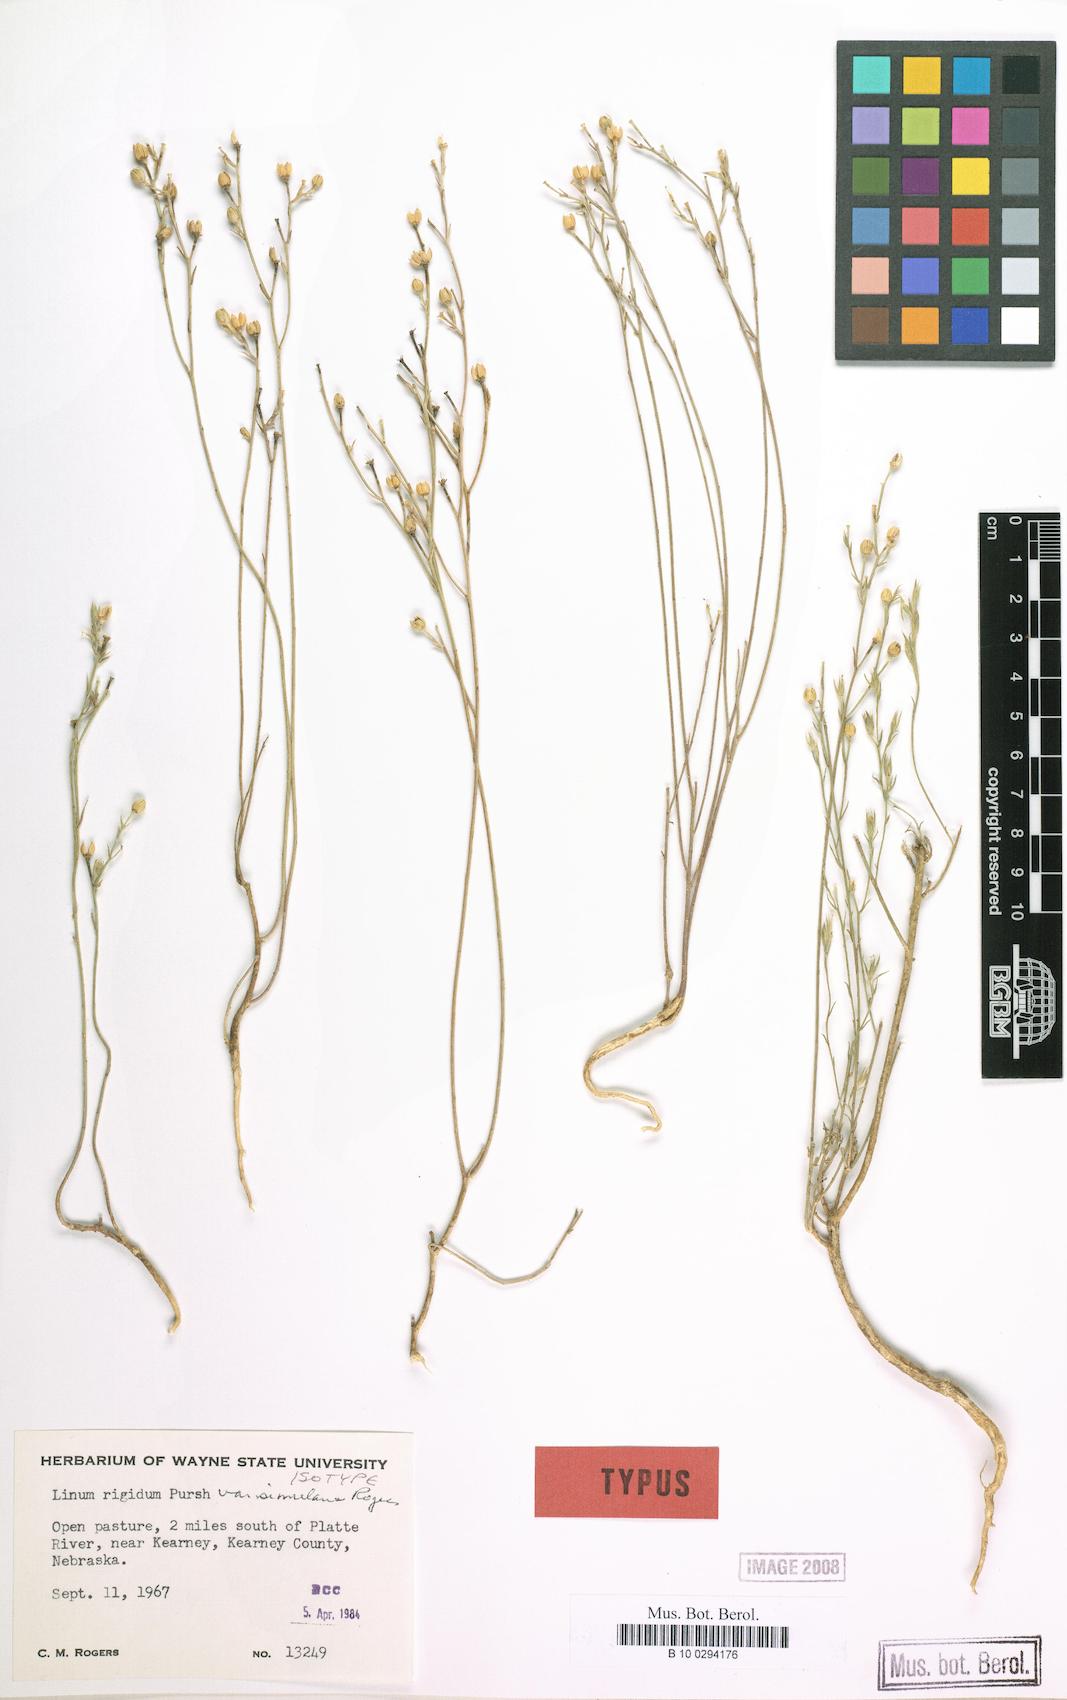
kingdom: Plantae
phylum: Tracheophyta
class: Magnoliopsida
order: Malpighiales
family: Linaceae
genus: Linum
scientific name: Linum rigidum
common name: Stiff-stem flax
